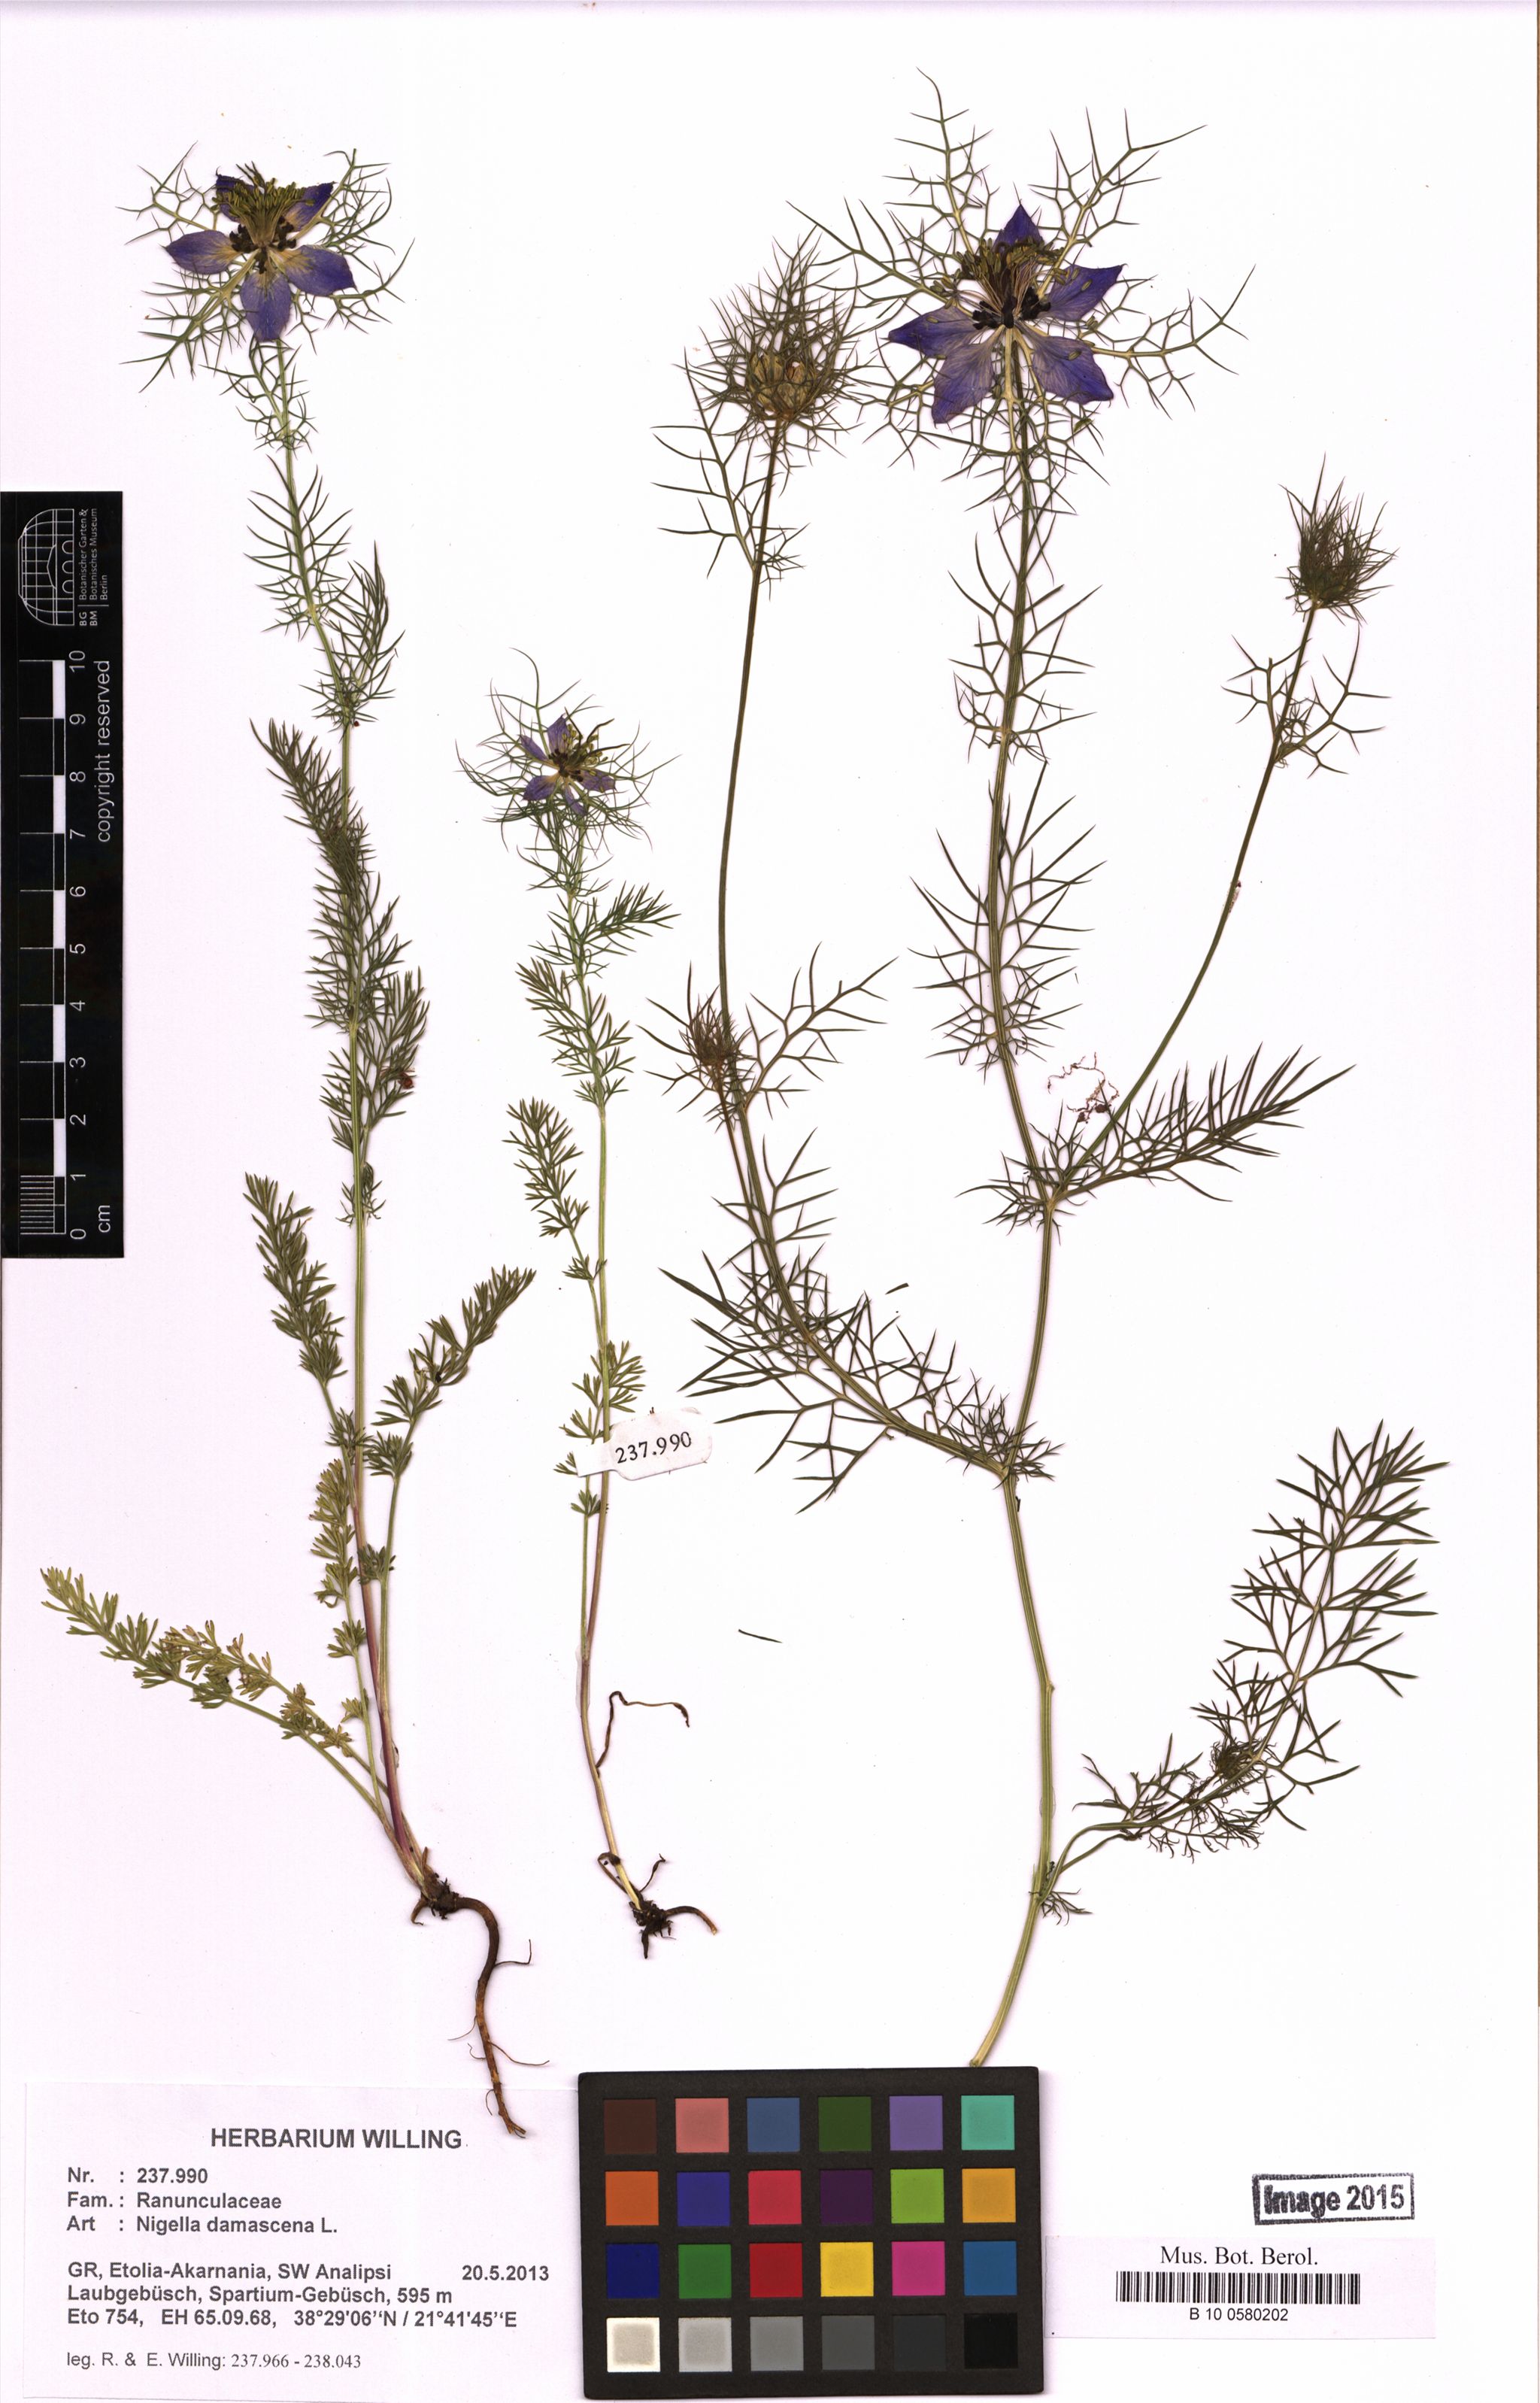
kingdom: Plantae
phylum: Tracheophyta
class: Magnoliopsida
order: Ranunculales
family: Ranunculaceae
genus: Nigella
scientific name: Nigella damascena
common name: Love-in-a-mist
